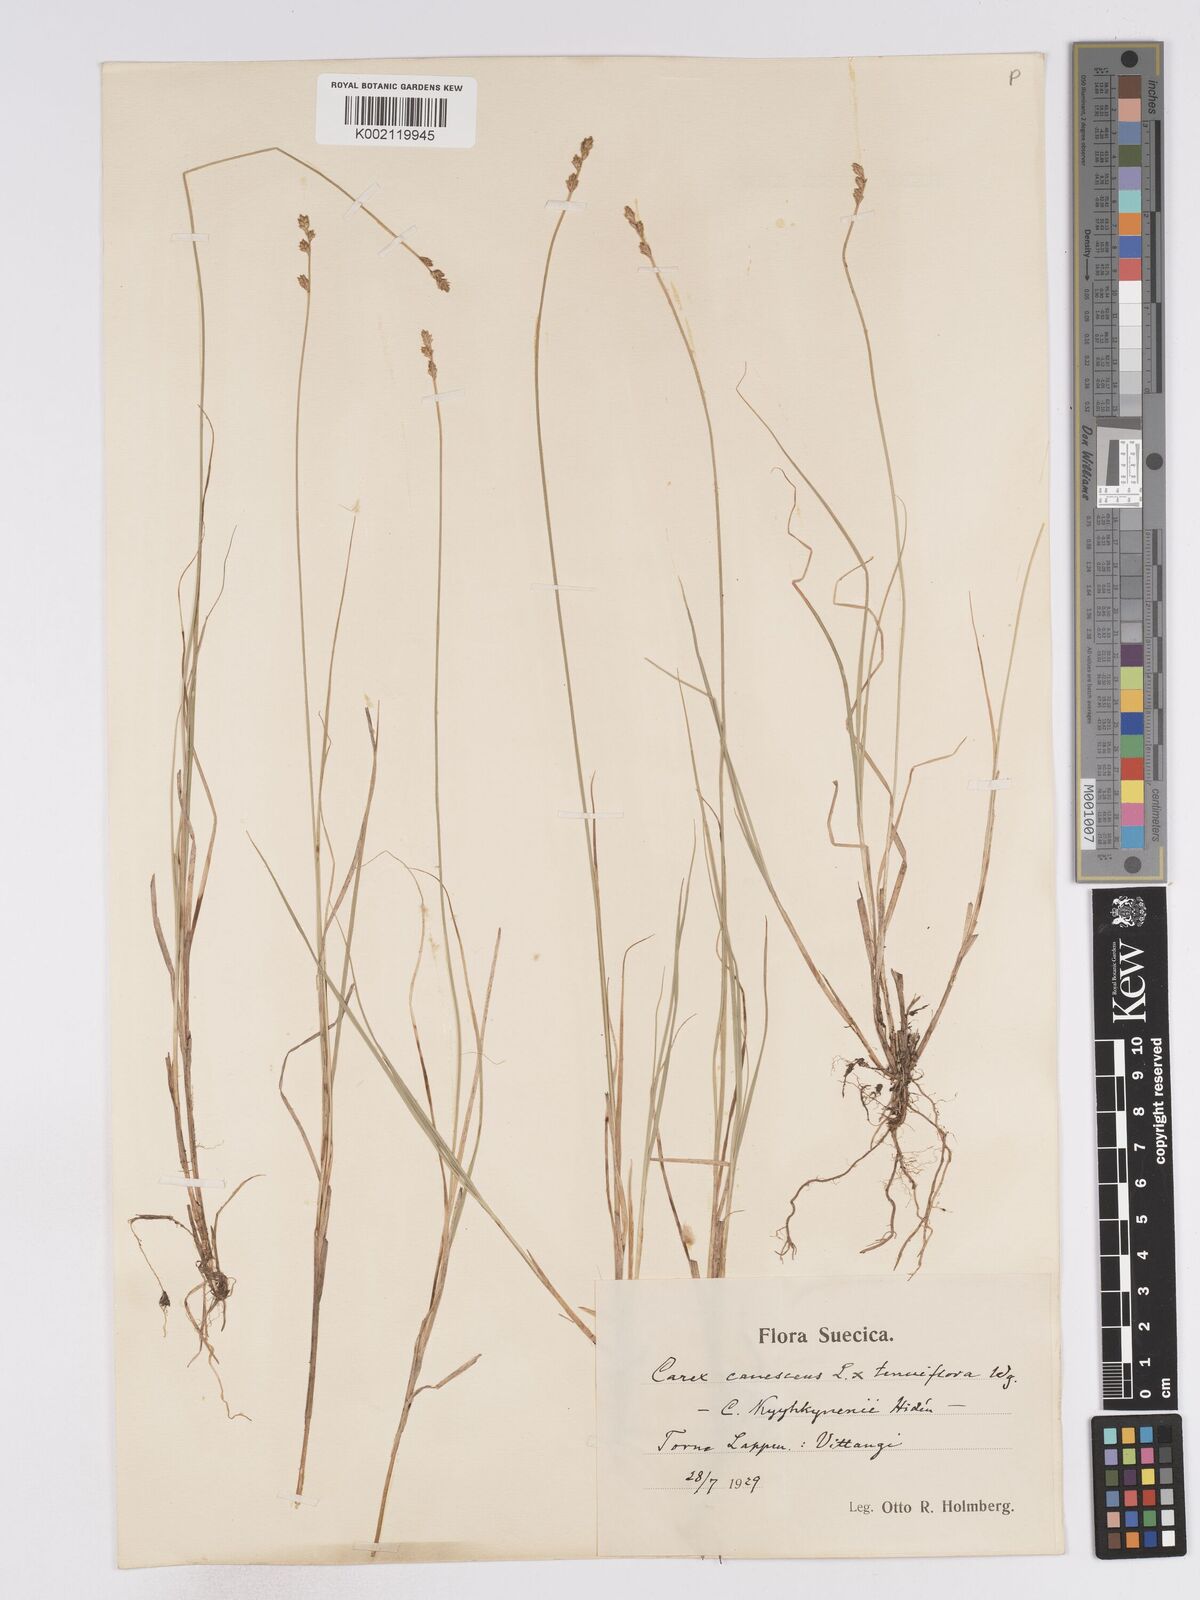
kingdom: Plantae
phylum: Tracheophyta
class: Liliopsida
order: Poales
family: Cyperaceae
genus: Carex
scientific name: Carex curta
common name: White sedge
